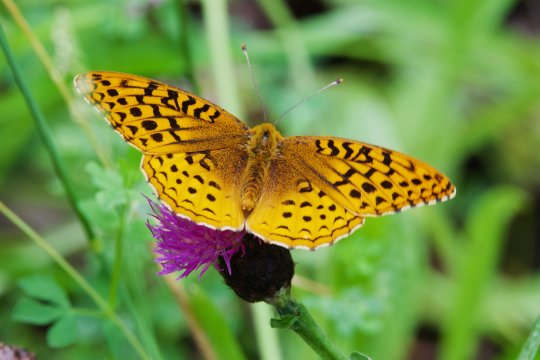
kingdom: Animalia
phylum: Arthropoda
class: Insecta
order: Lepidoptera
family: Nymphalidae
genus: Speyeria
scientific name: Speyeria cybele
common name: Great Spangled Fritillary
